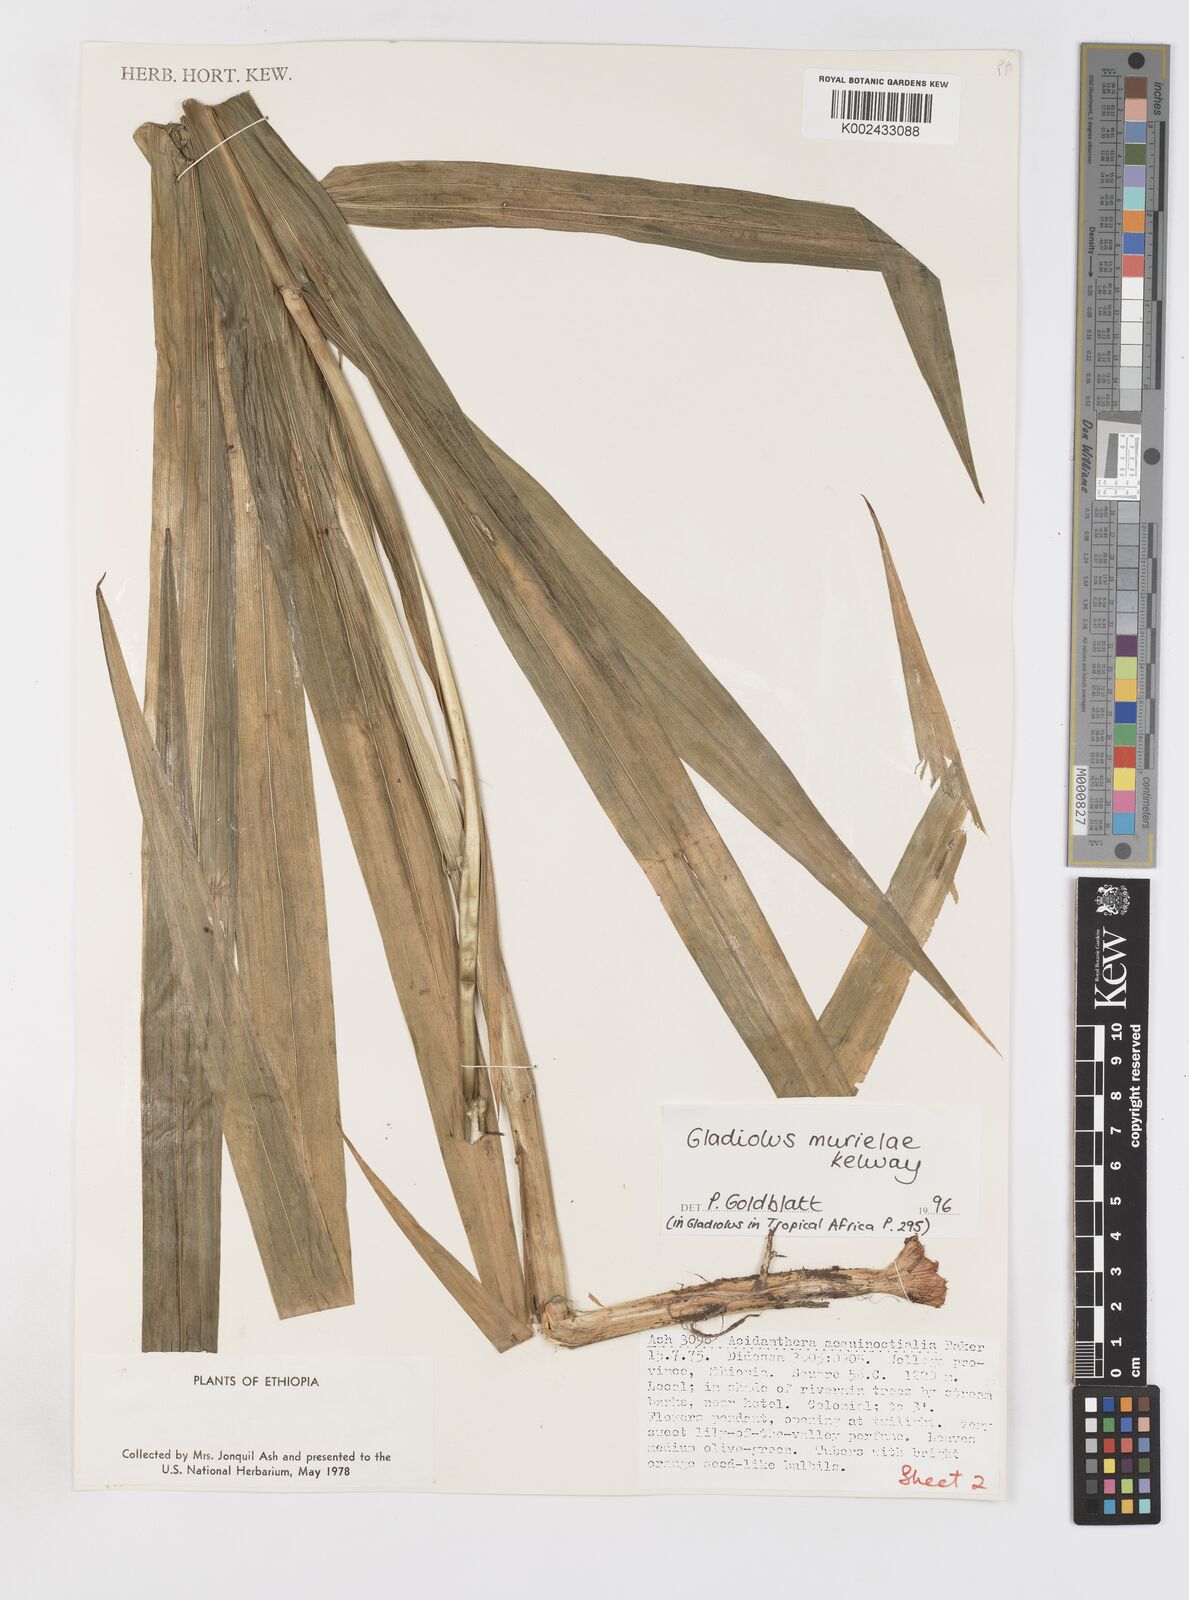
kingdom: Plantae
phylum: Tracheophyta
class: Liliopsida
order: Asparagales
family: Iridaceae
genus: Gladiolus
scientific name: Gladiolus murielae
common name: Acidanthera
